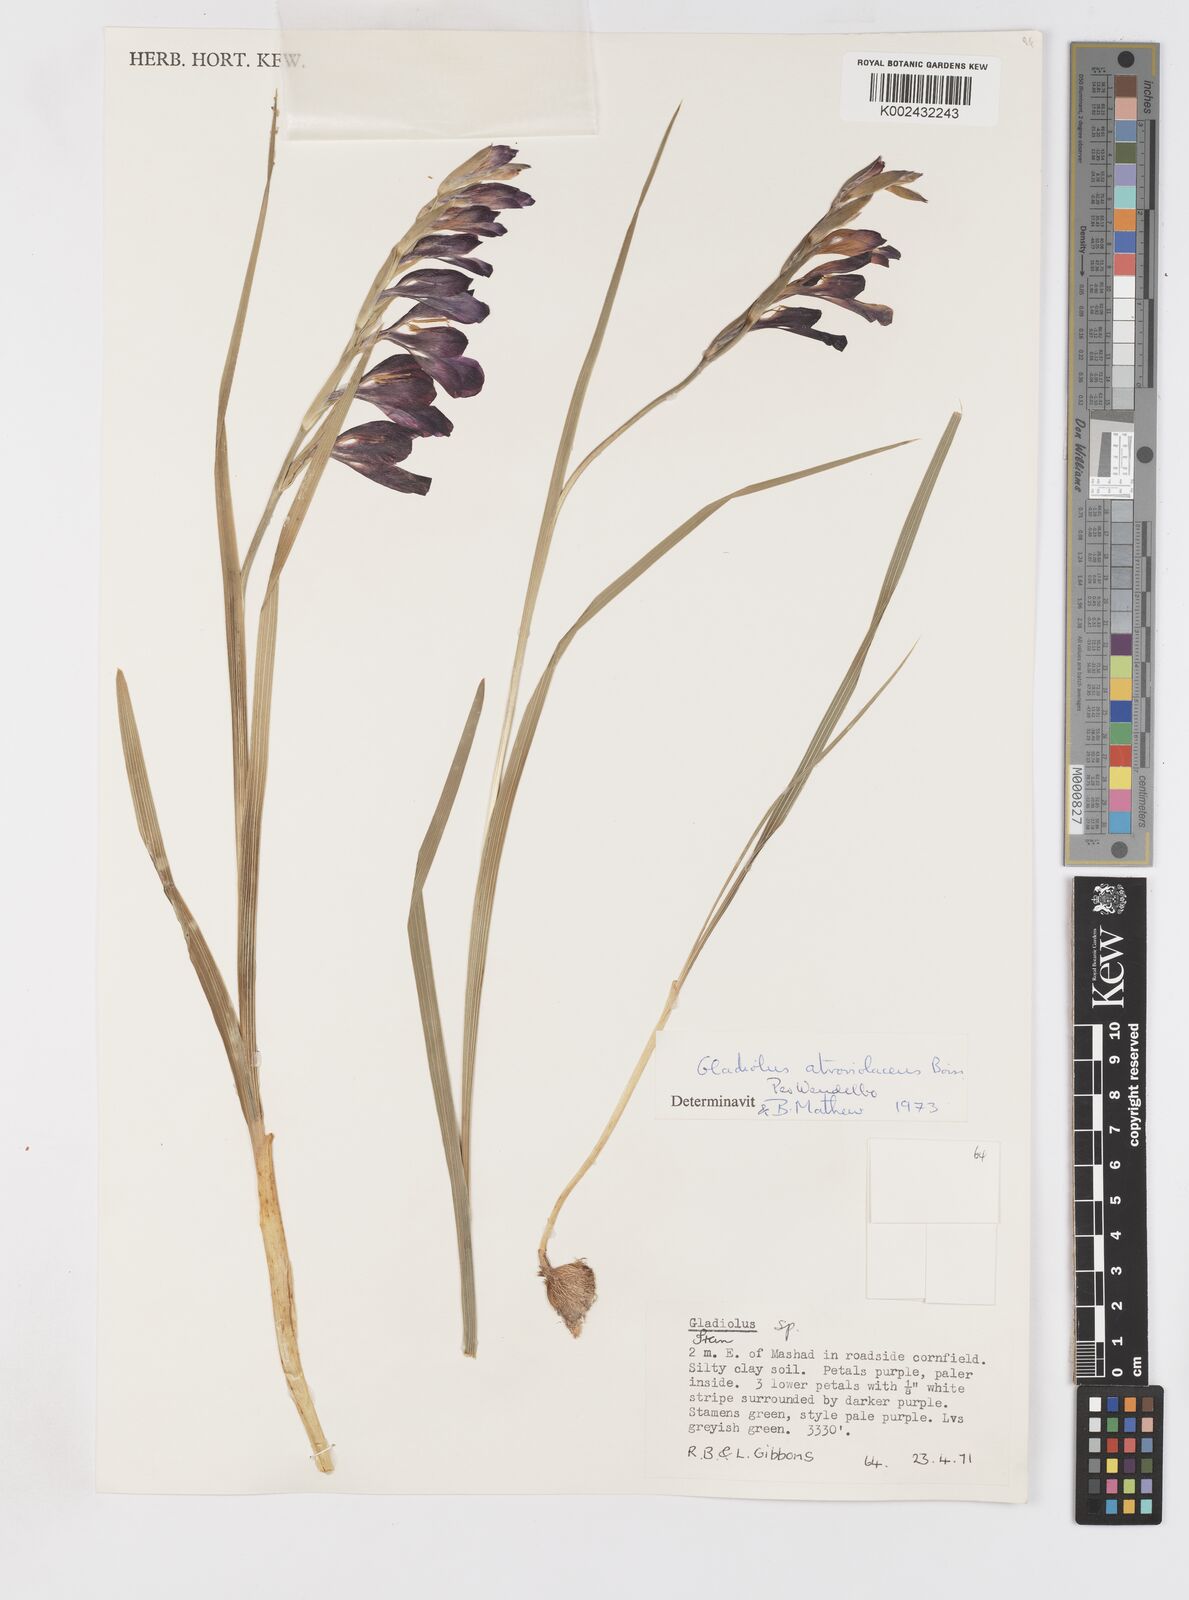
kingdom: Plantae
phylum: Tracheophyta
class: Liliopsida
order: Asparagales
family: Iridaceae
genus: Gladiolus
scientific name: Gladiolus atroviolaceus
